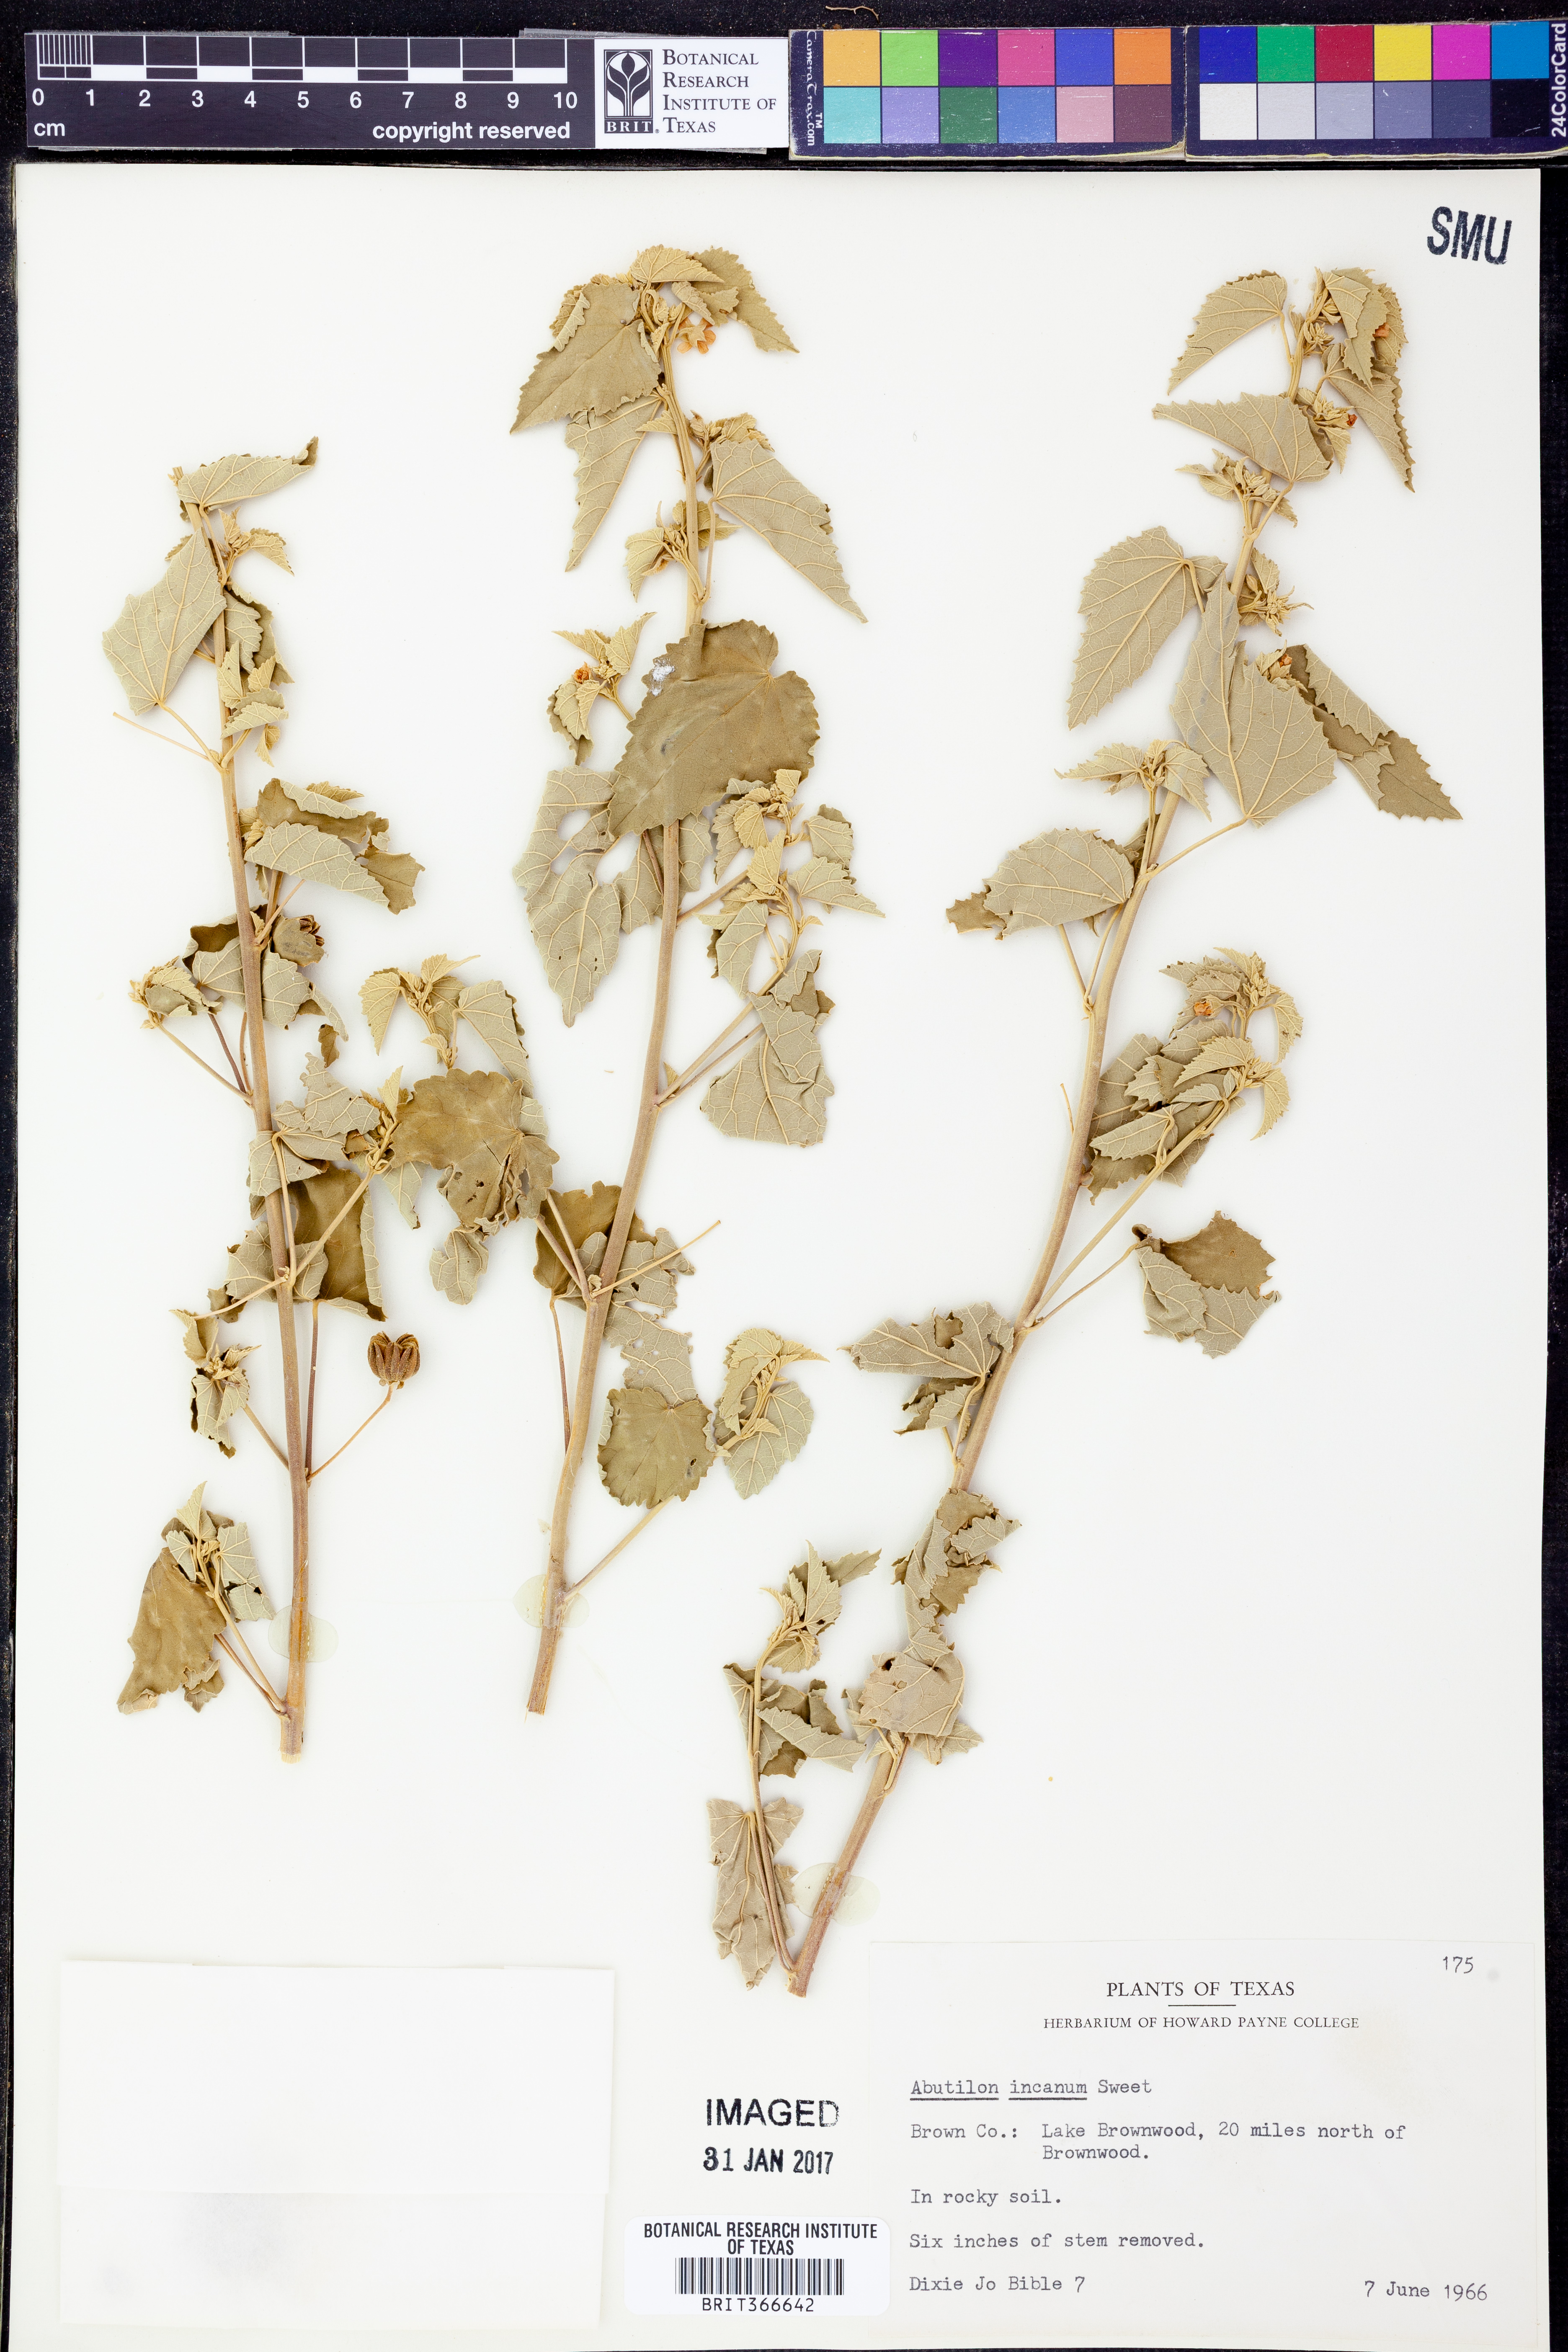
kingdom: Plantae
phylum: Tracheophyta
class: Magnoliopsida
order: Malvales
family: Malvaceae
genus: Abutilon
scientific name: Abutilon incanum
